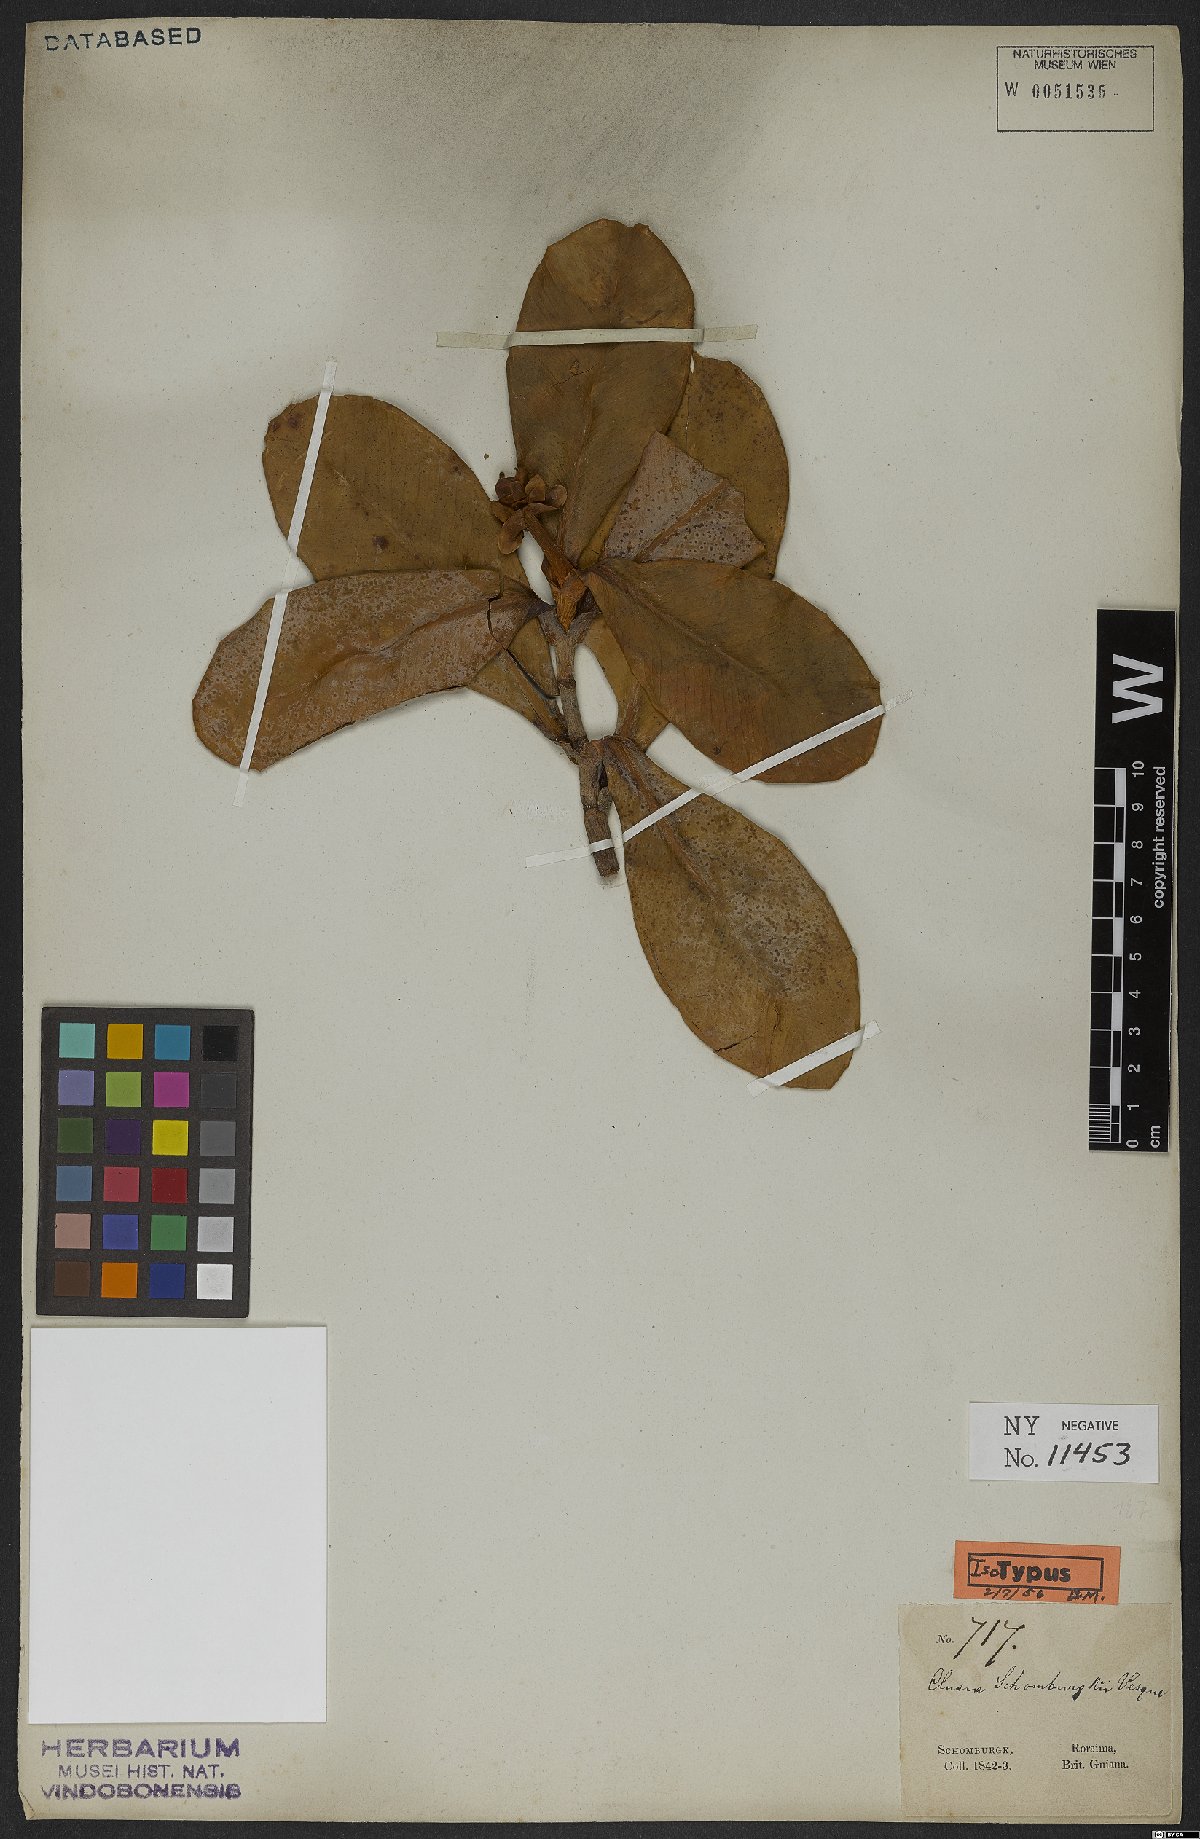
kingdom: Plantae
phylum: Tracheophyta
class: Magnoliopsida
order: Malpighiales
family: Clusiaceae
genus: Clusia
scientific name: Clusia schomburgkii
